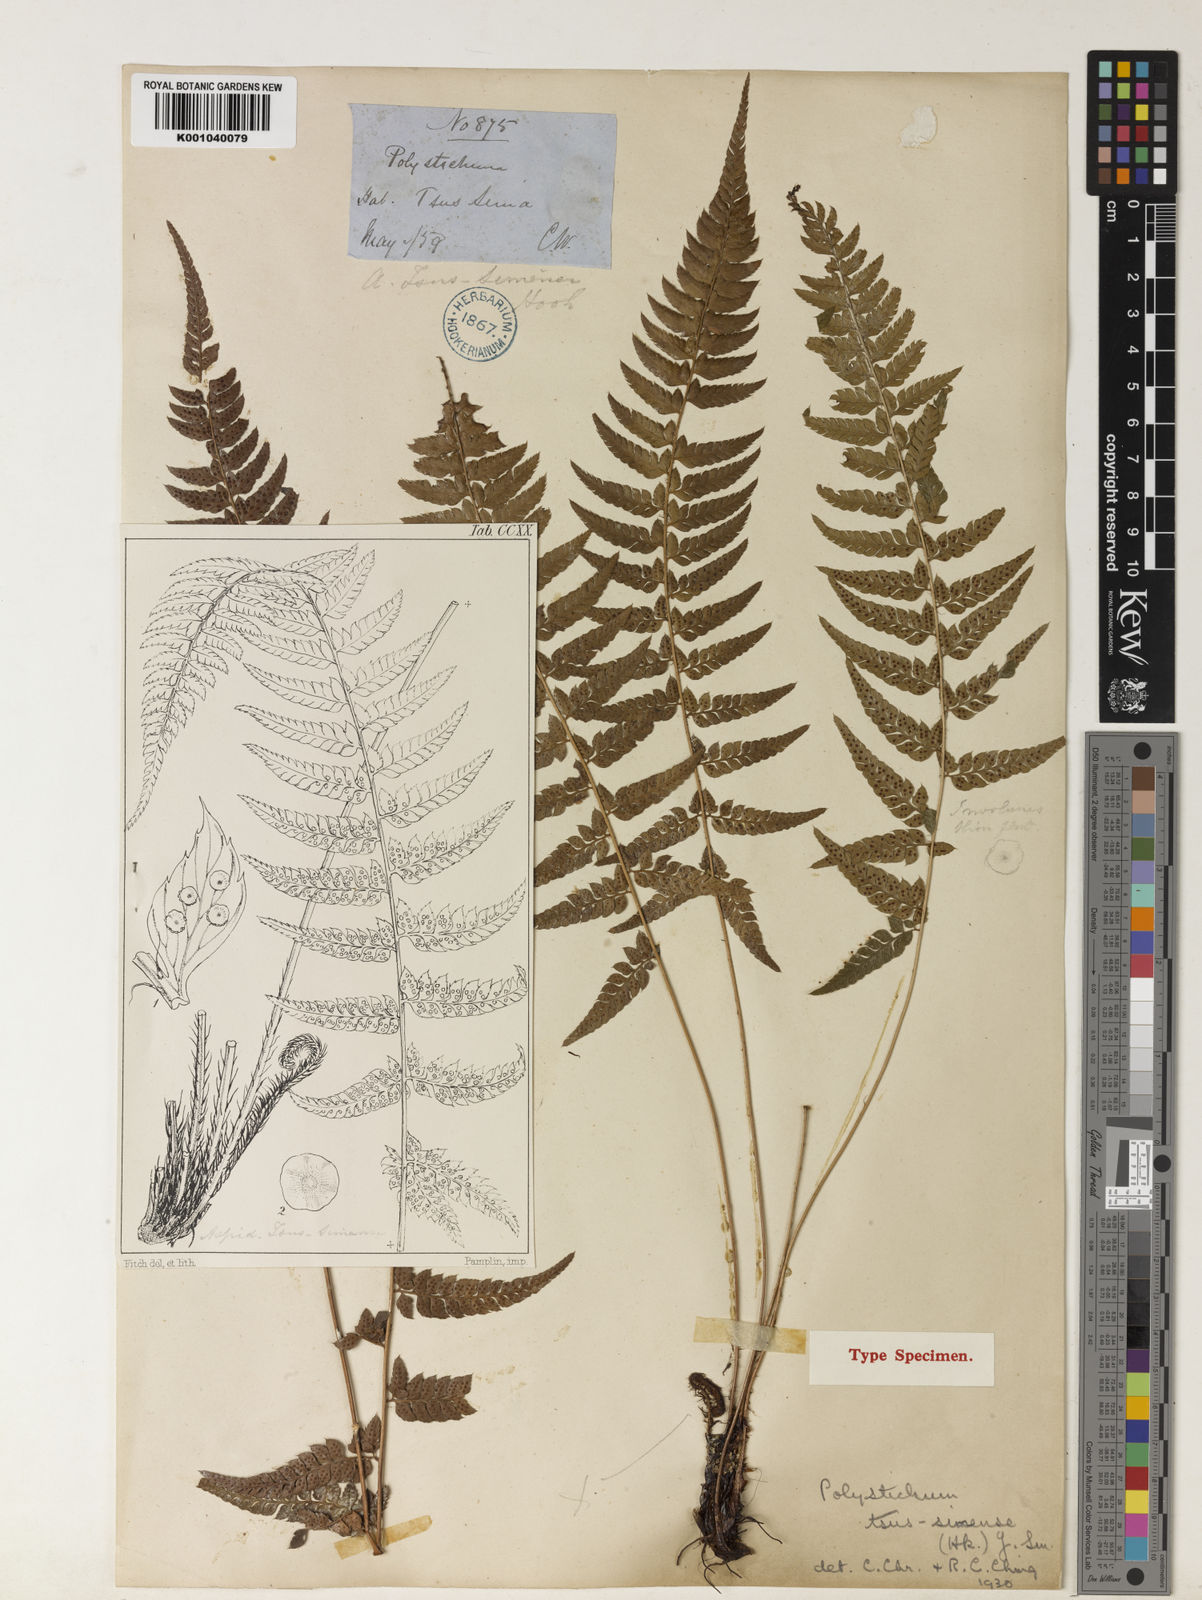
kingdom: Plantae
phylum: Tracheophyta
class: Polypodiopsida
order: Polypodiales
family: Dryopteridaceae
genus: Polystichum
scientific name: Polystichum luctuosum
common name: Korean rockfern
